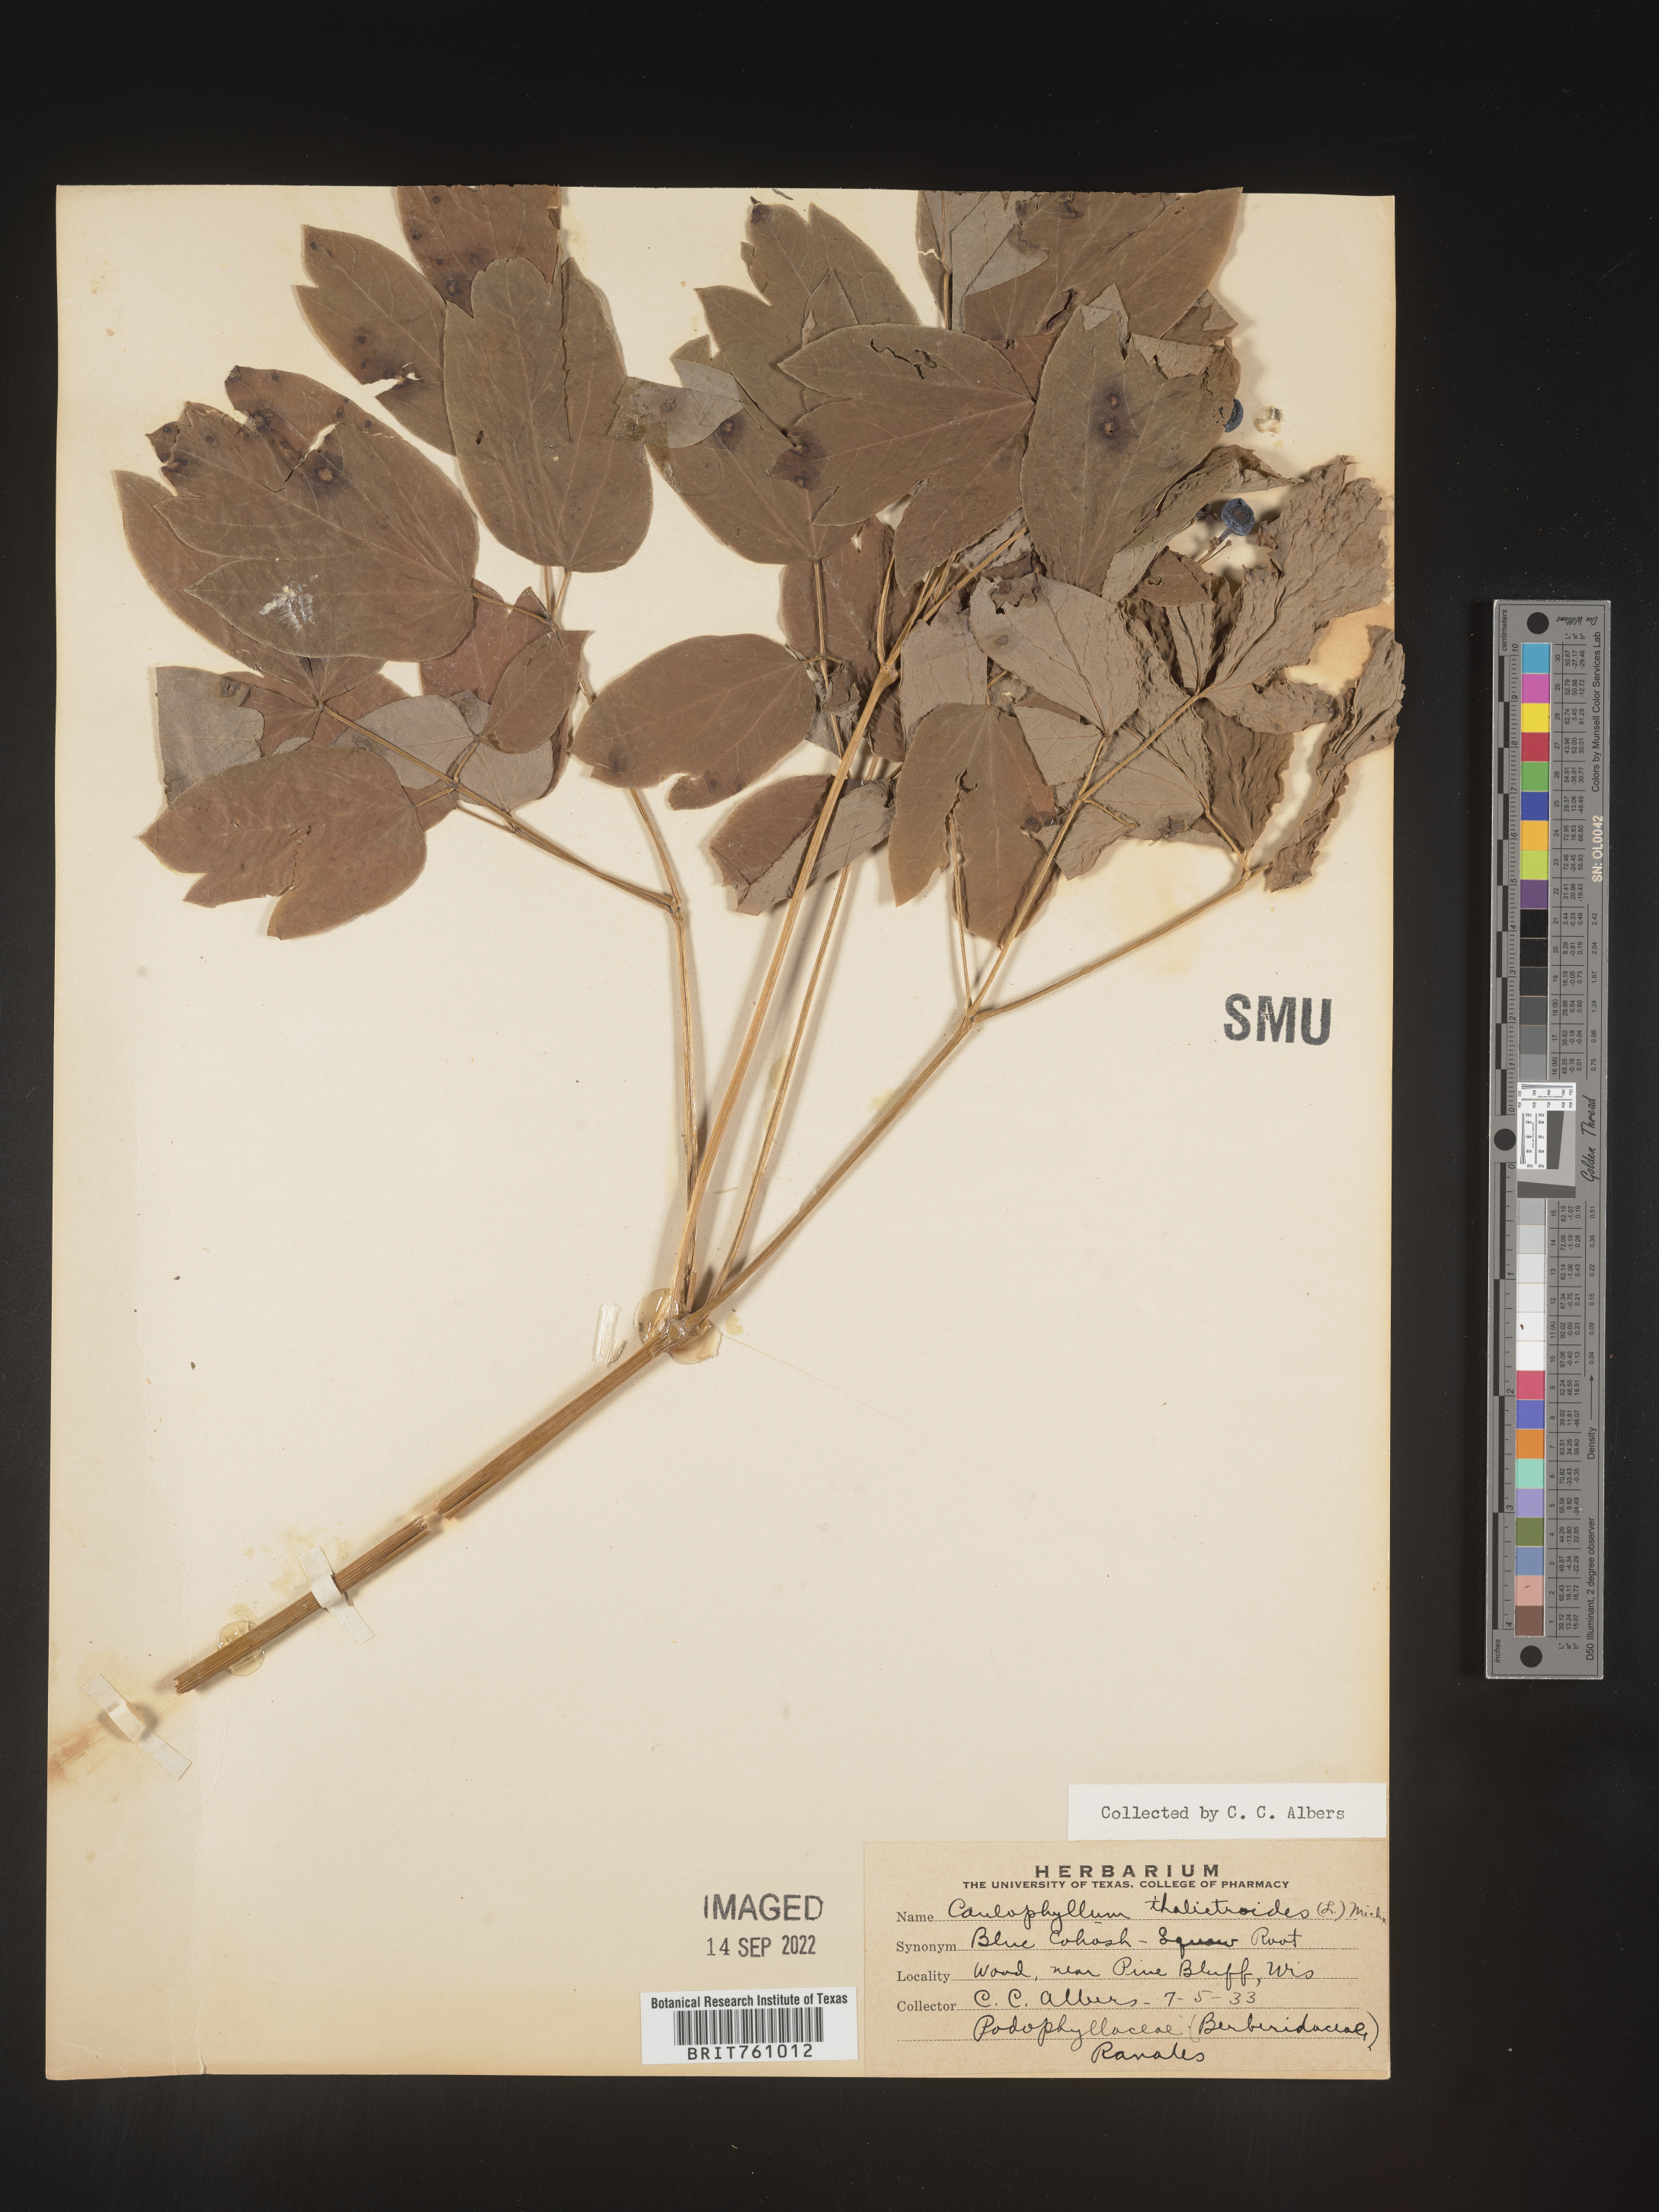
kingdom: Plantae
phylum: Tracheophyta
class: Magnoliopsida
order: Ranunculales
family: Berberidaceae
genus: Caulophyllum
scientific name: Caulophyllum thalictroides
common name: Blue cohosh
